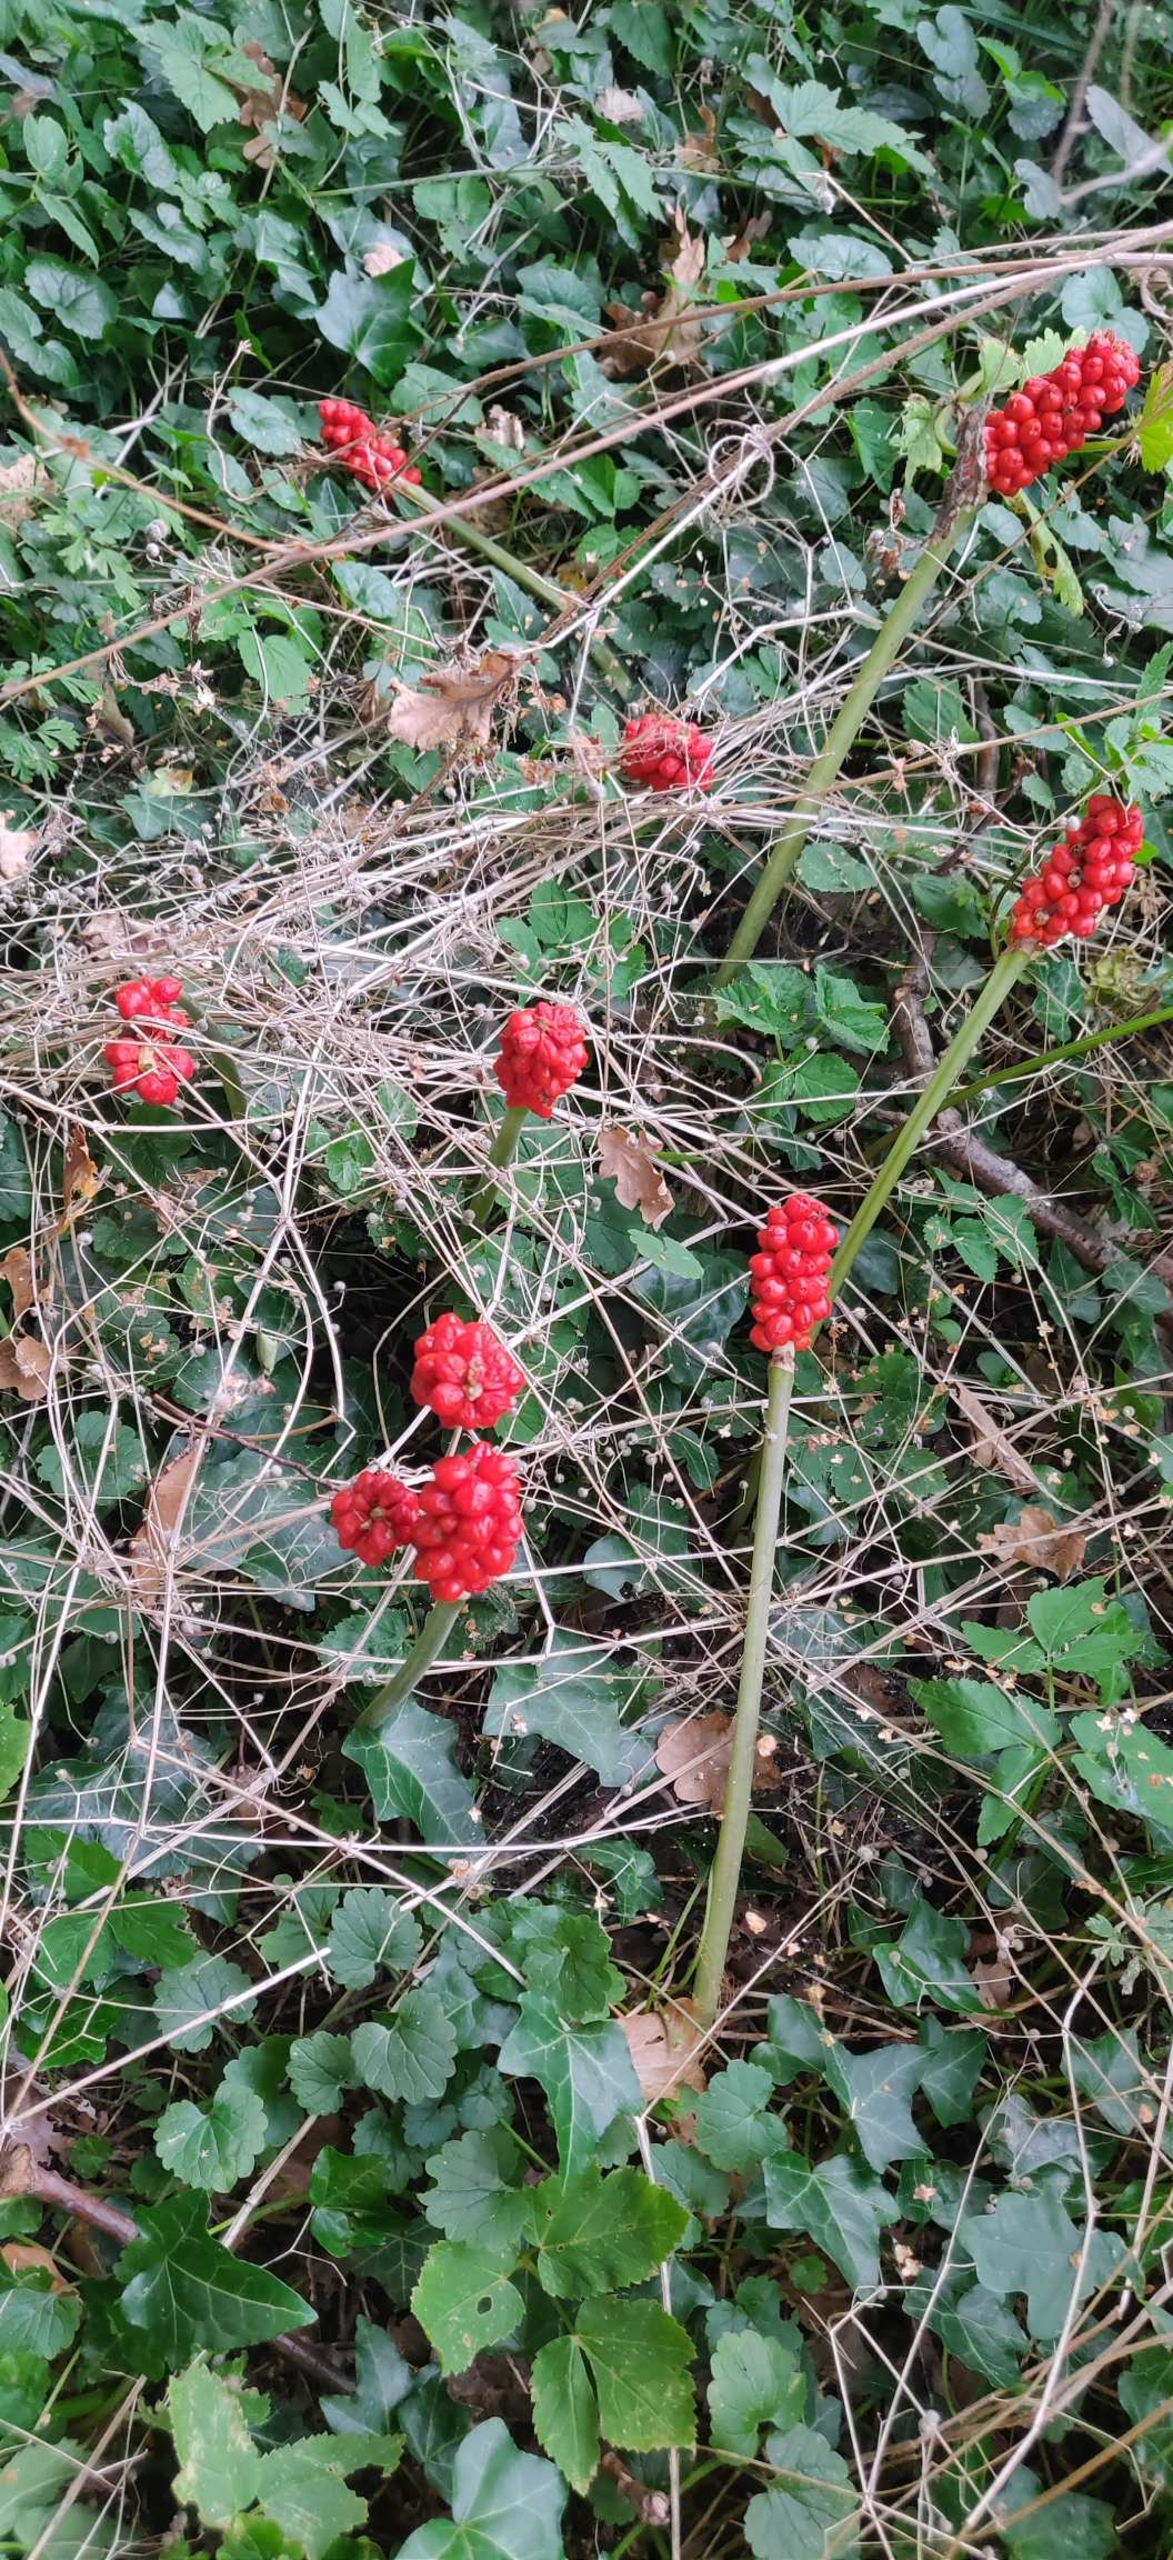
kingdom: Plantae
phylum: Tracheophyta
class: Liliopsida
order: Alismatales
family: Araceae
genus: Arum
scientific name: Arum
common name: Arumslægten
